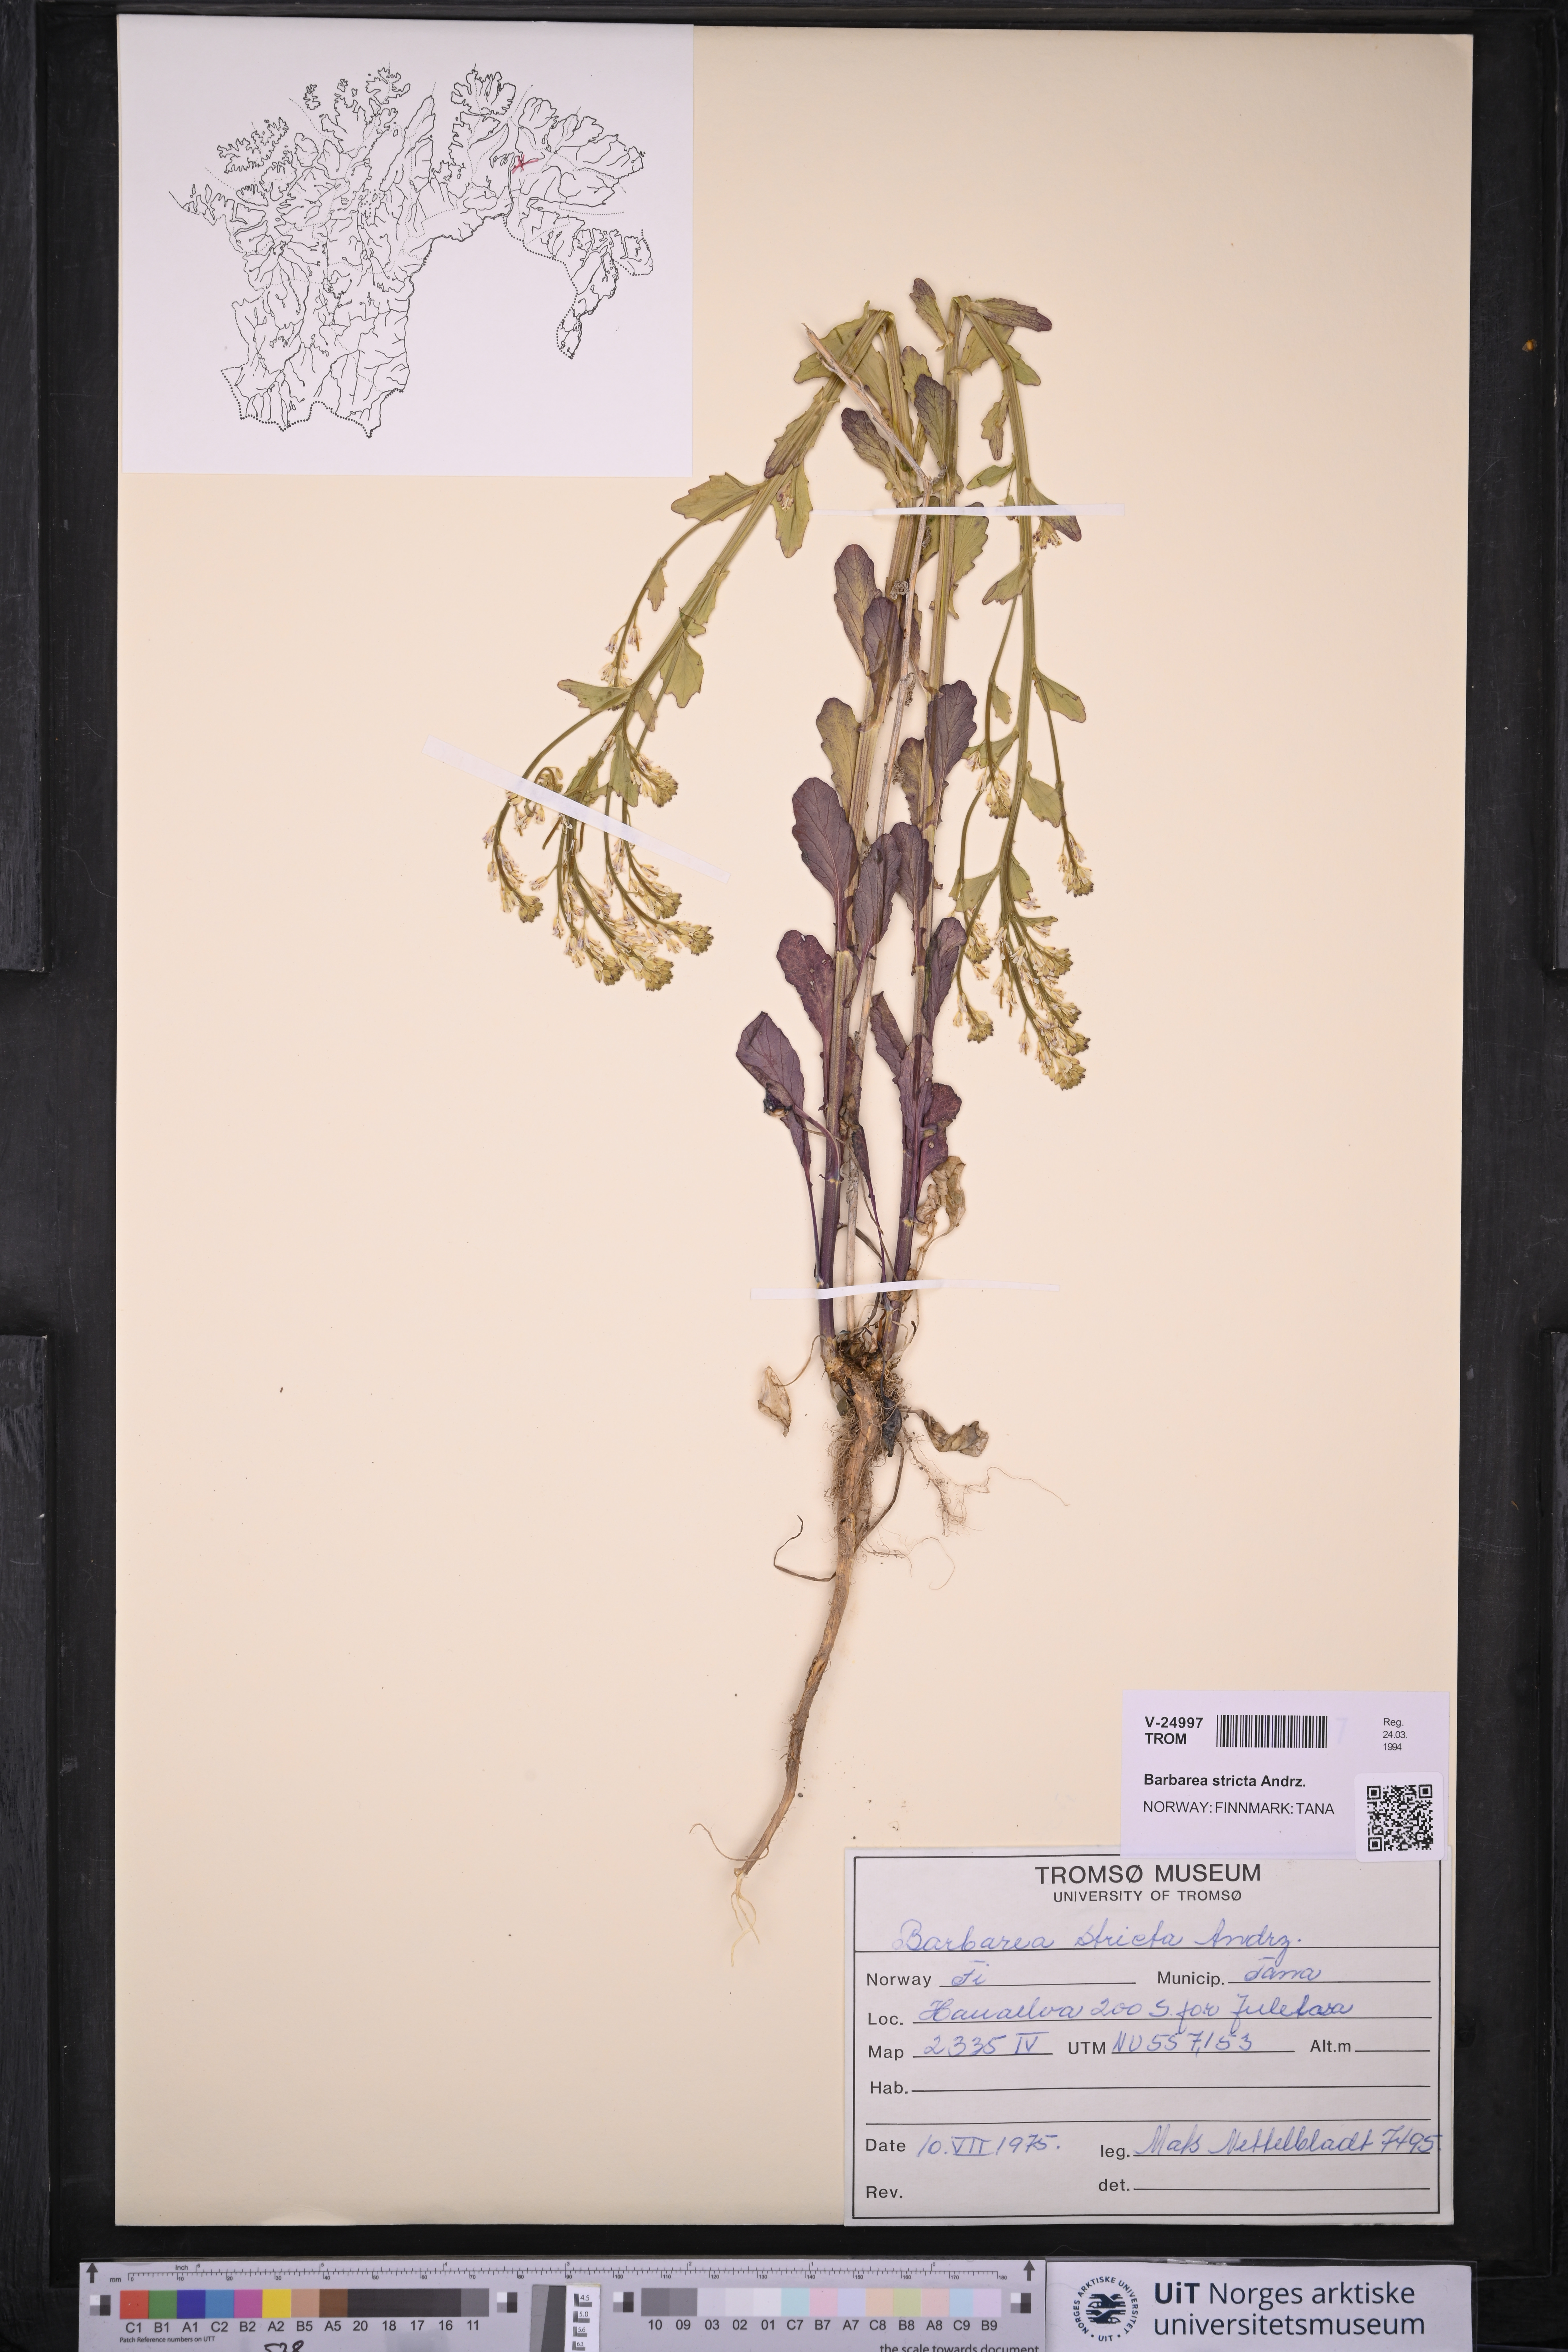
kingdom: Plantae
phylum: Tracheophyta
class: Magnoliopsida
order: Brassicales
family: Brassicaceae
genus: Barbarea
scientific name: Barbarea stricta
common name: Small-flowered winter-cress
